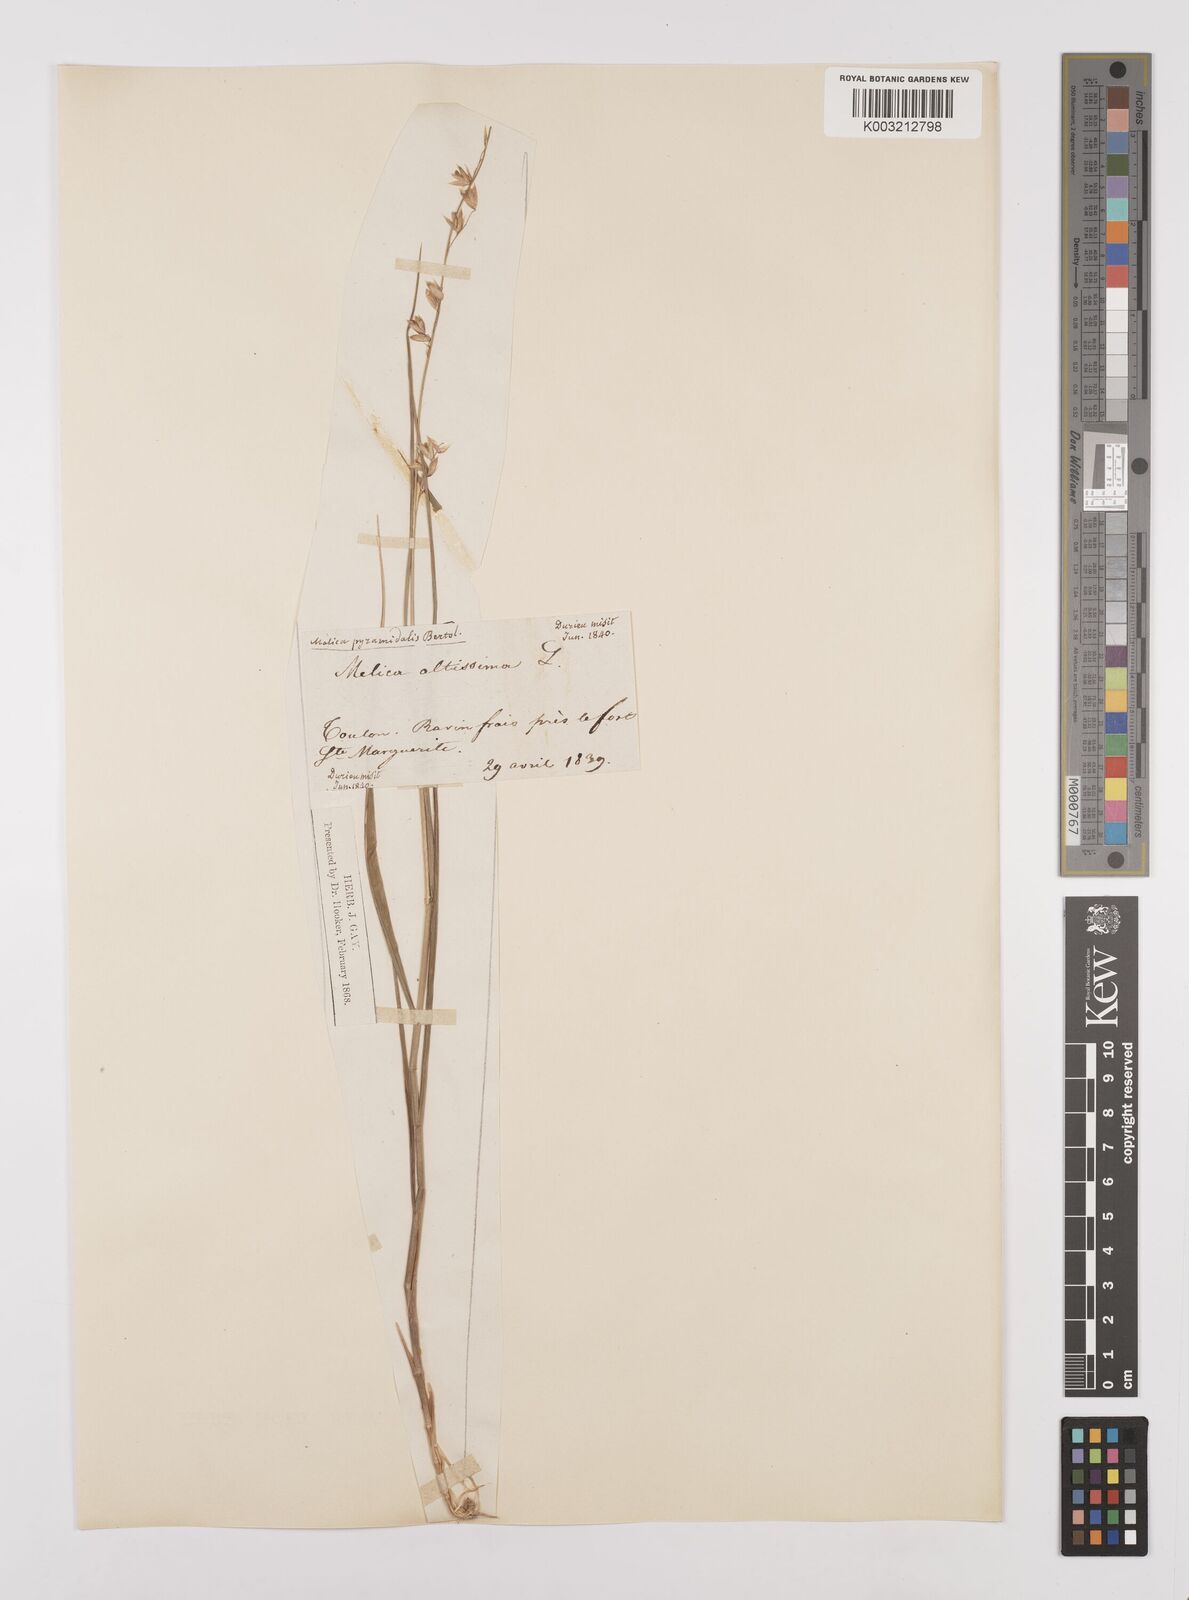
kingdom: Plantae
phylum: Tracheophyta
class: Liliopsida
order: Poales
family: Poaceae
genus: Melica
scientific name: Melica minuta
